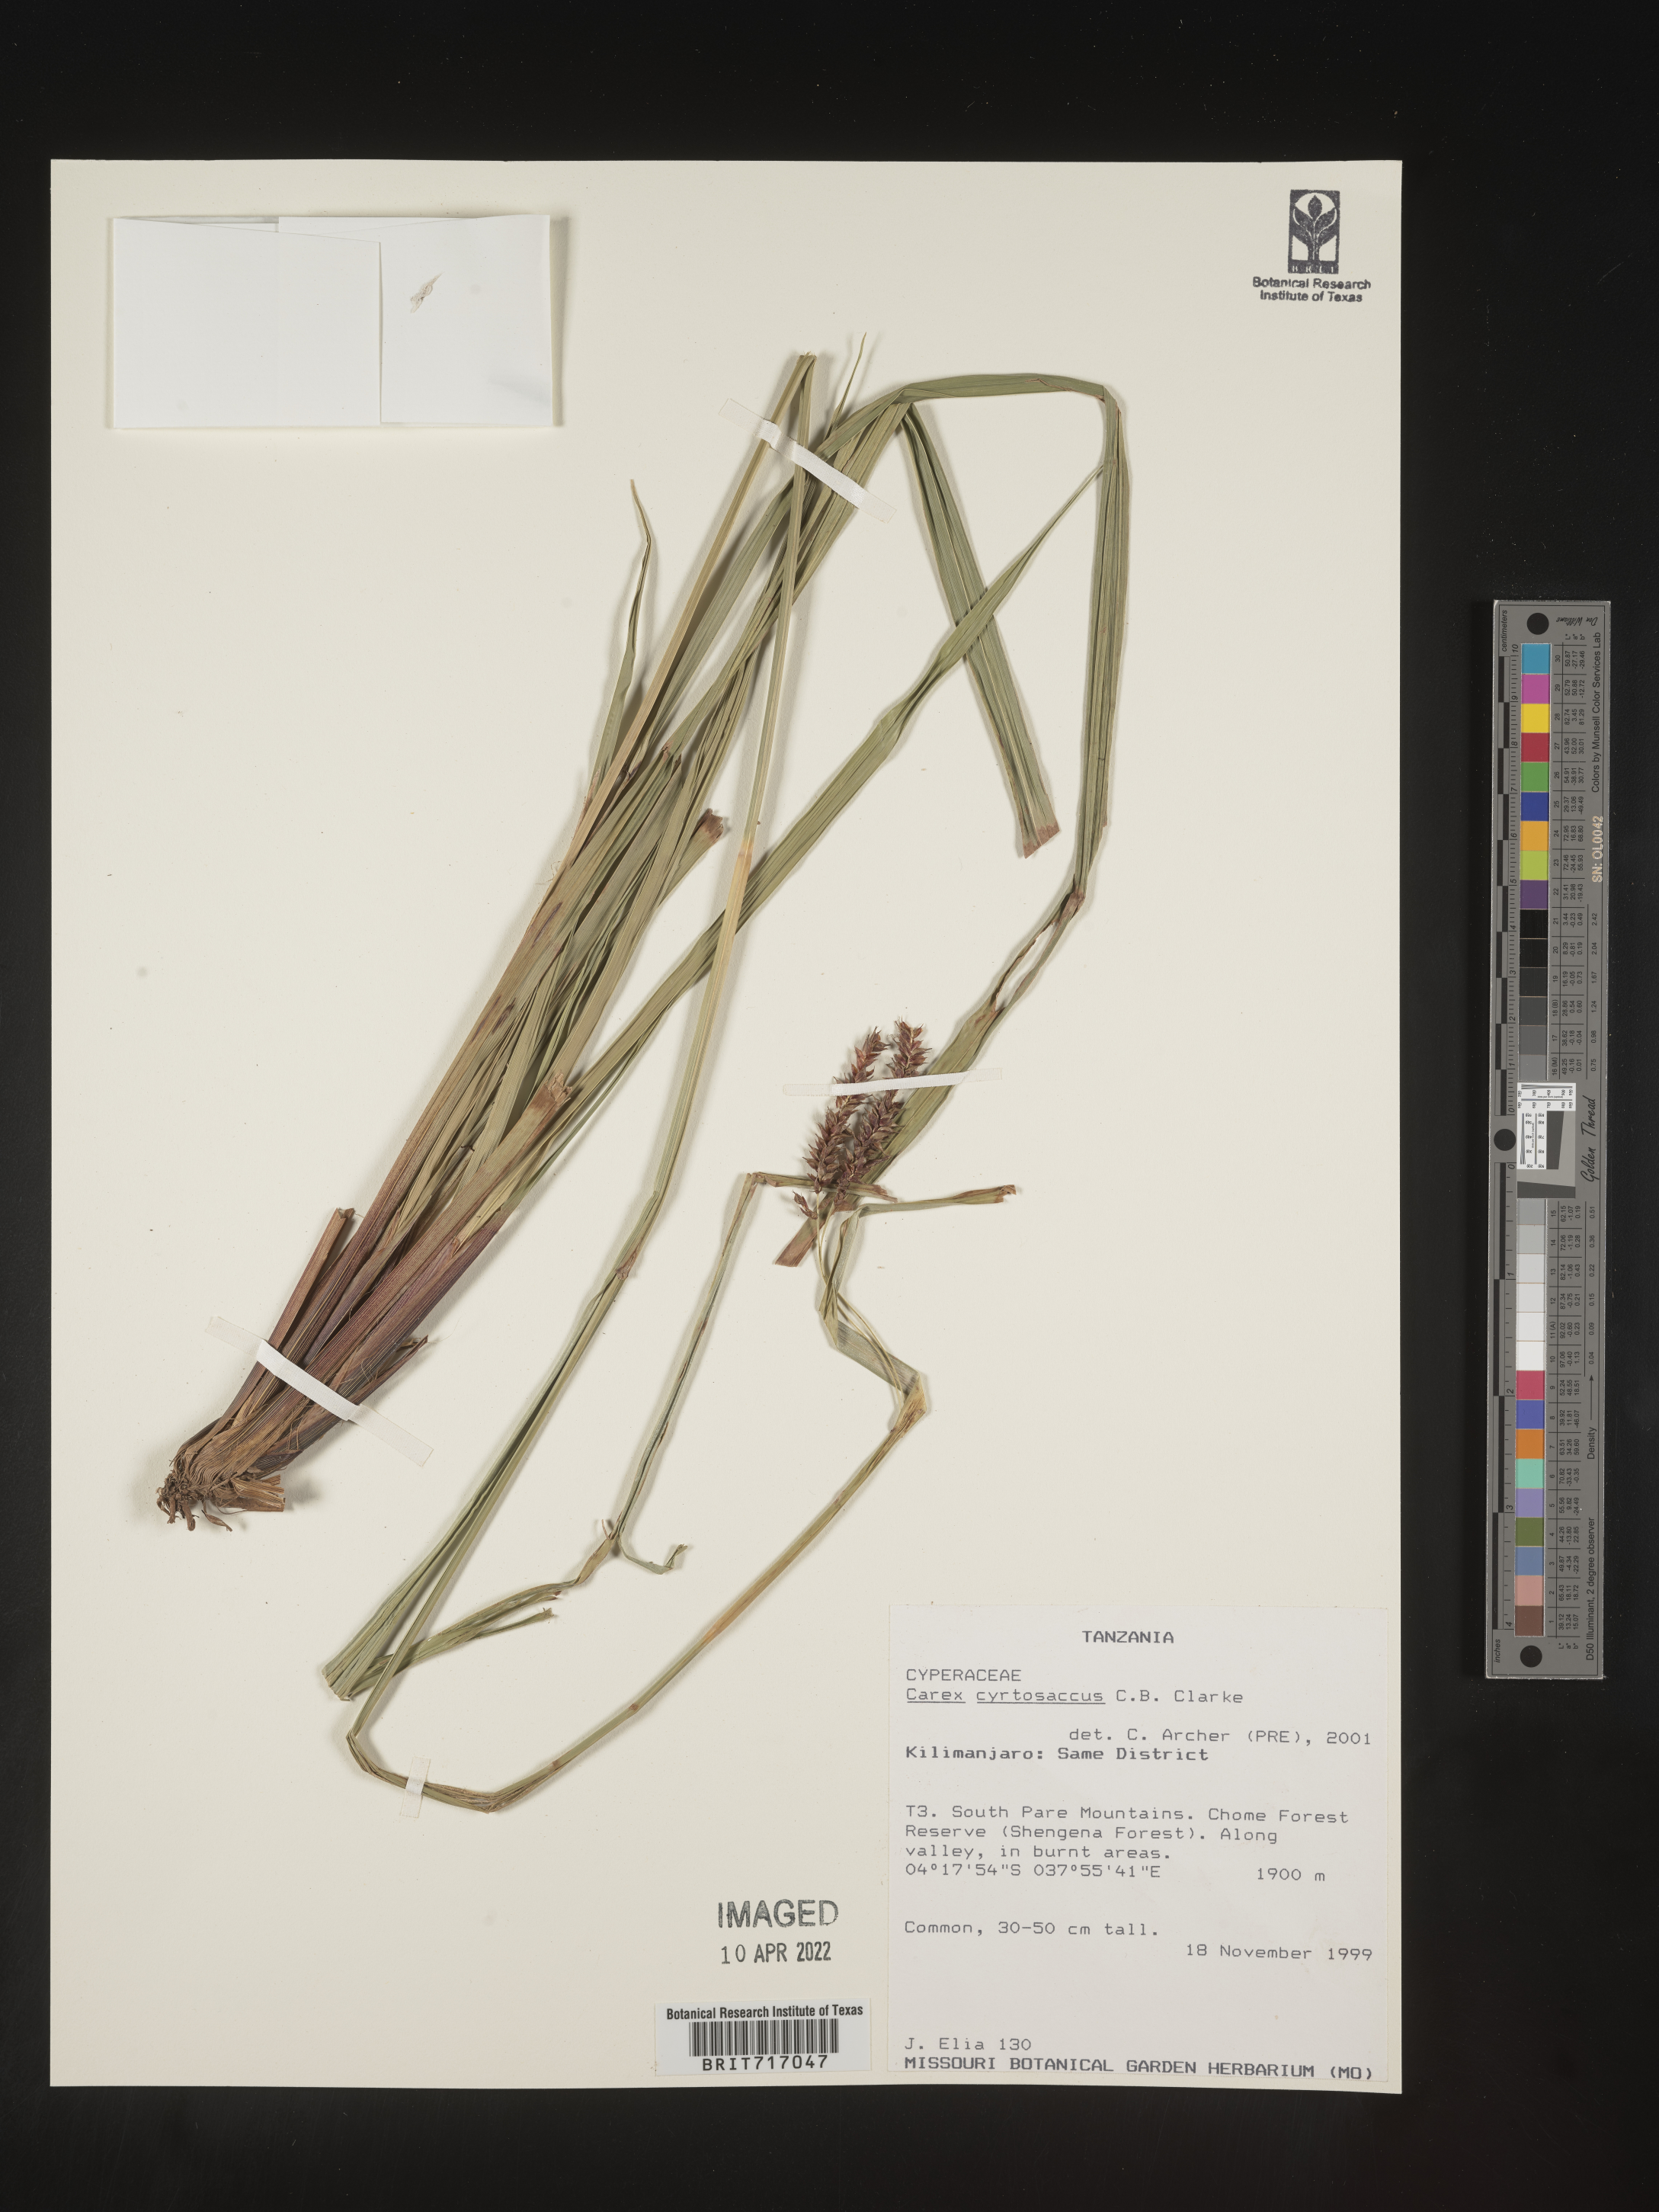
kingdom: Plantae
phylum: Tracheophyta
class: Liliopsida
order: Poales
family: Cyperaceae
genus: Carex
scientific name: Carex
